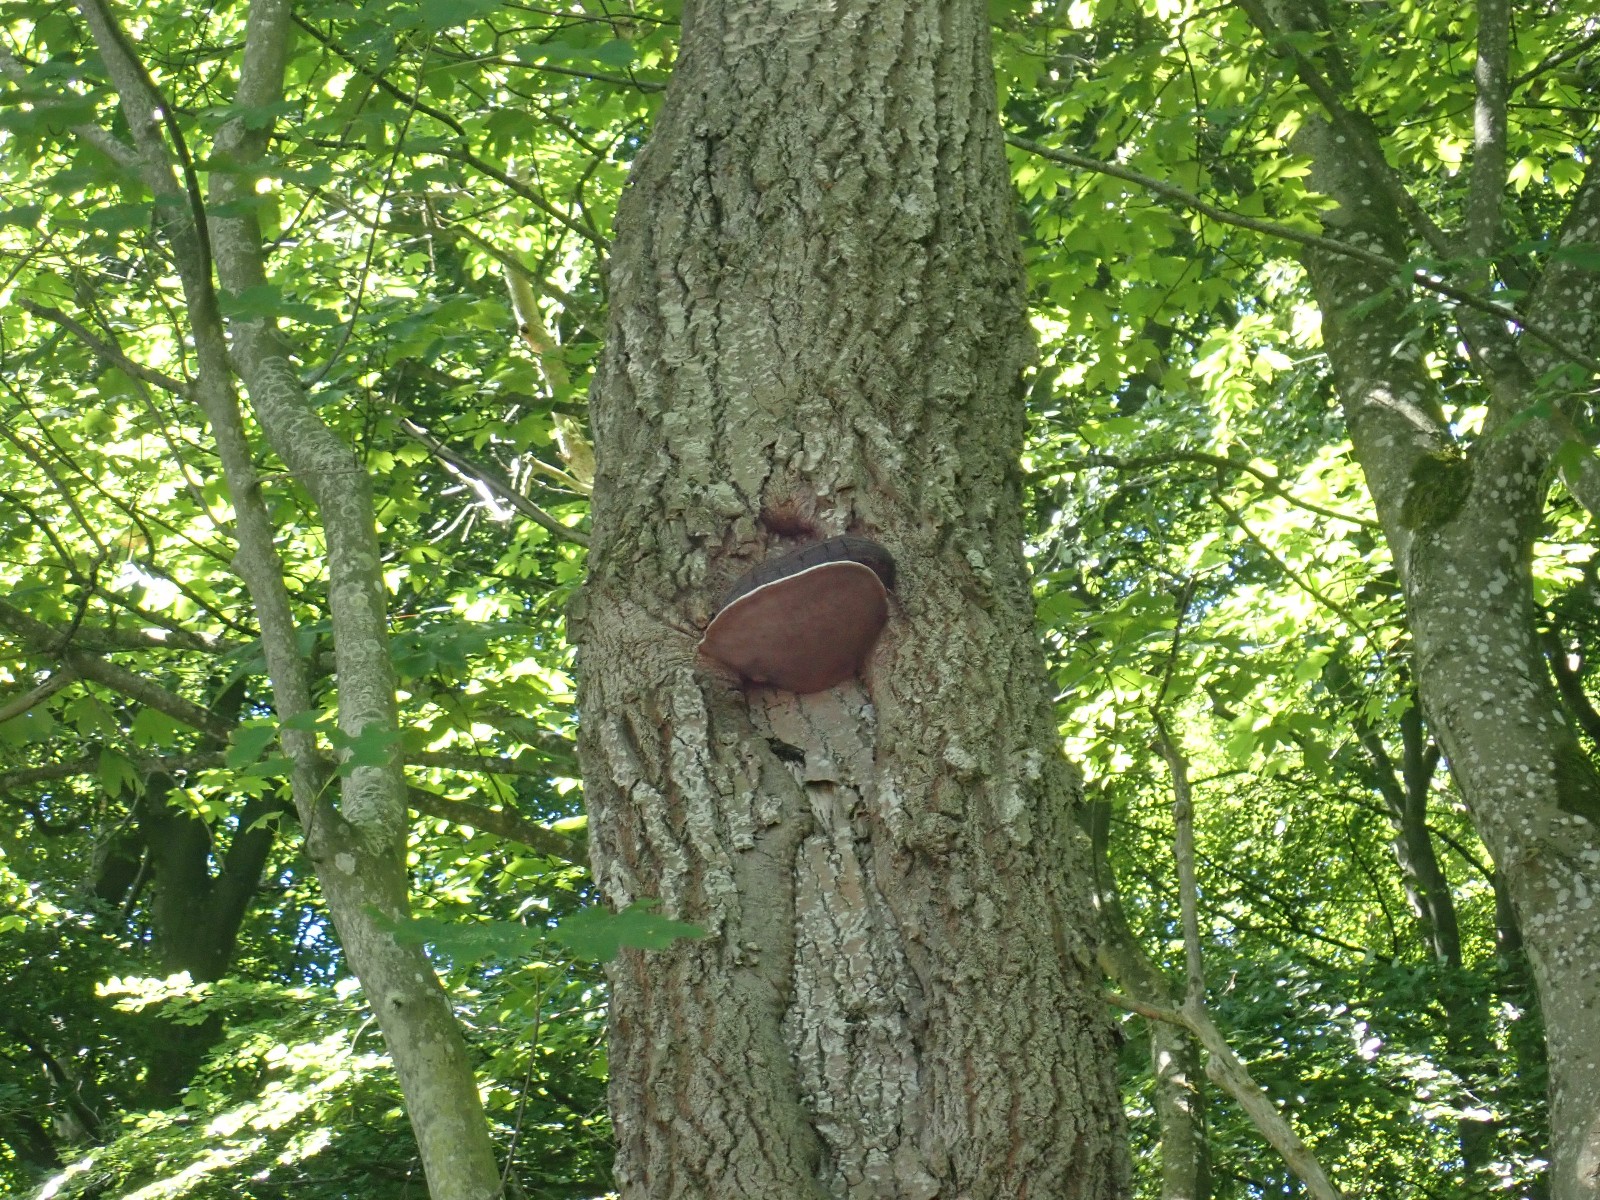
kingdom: Fungi
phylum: Basidiomycota
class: Agaricomycetes
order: Hymenochaetales
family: Hymenochaetaceae
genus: Phellinus
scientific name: Phellinus populicola
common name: poppel-ildporesvamp
